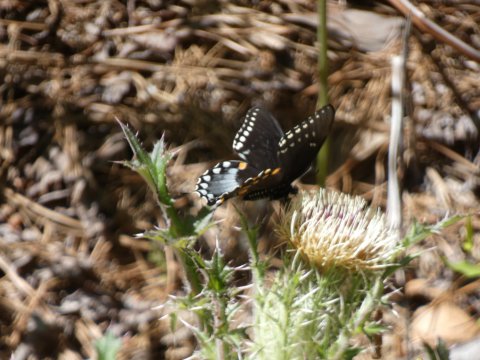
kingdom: Animalia
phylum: Arthropoda
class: Insecta
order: Lepidoptera
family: Papilionidae
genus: Pterourus
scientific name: Pterourus troilus
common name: Spicebush Swallowtail
